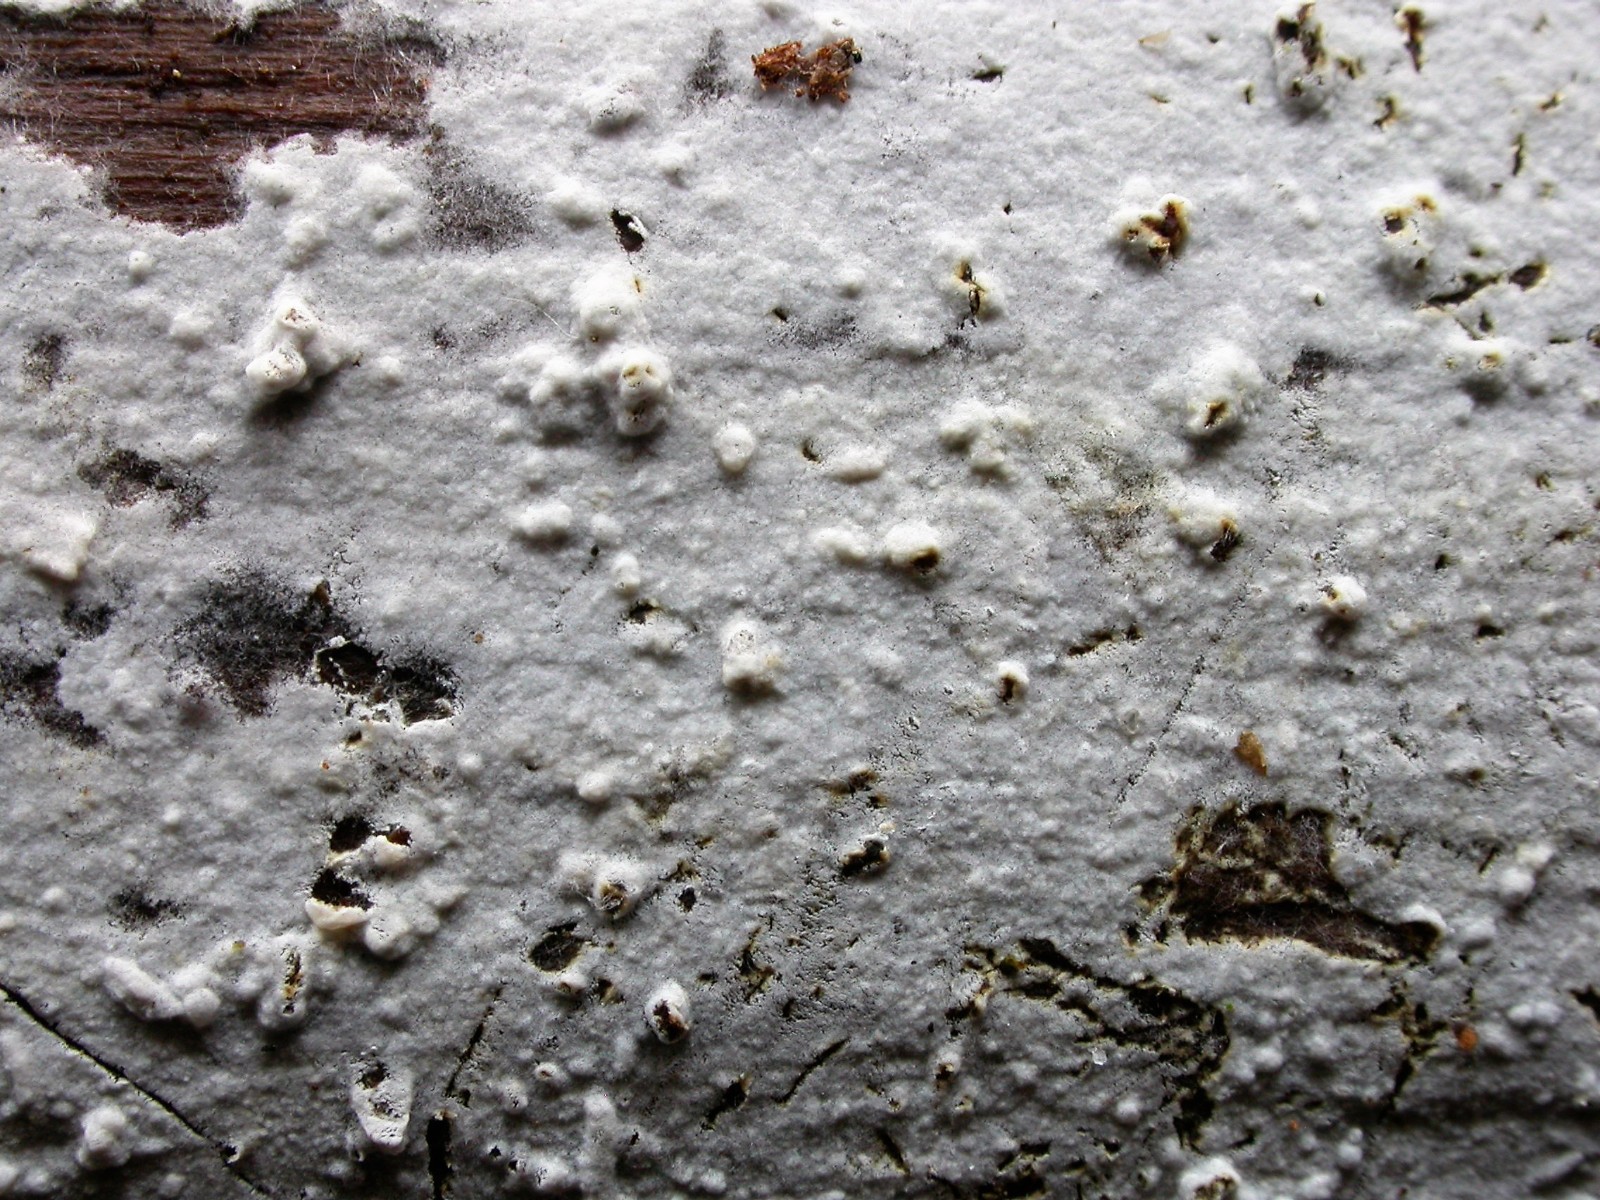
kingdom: Fungi
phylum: Basidiomycota
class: Agaricomycetes
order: Atheliales
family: Atheliaceae
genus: Athelia
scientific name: Athelia neuhoffii
